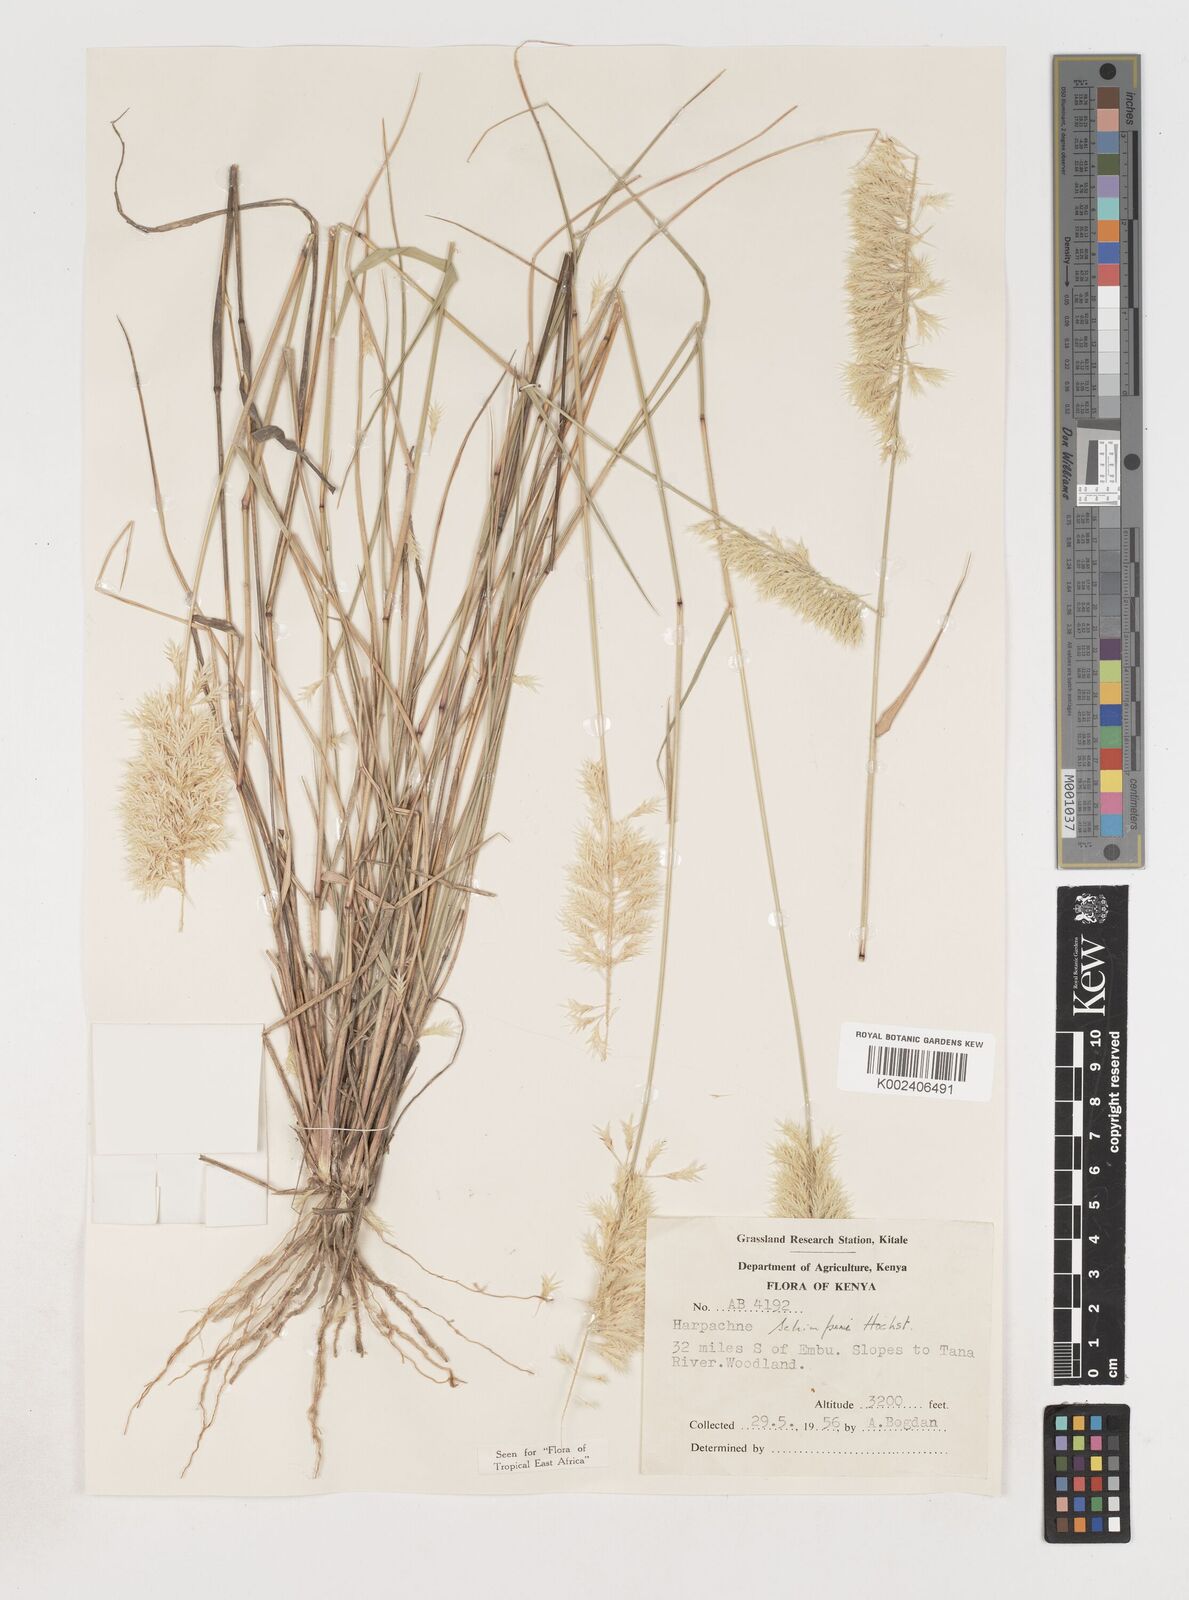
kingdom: Plantae
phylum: Tracheophyta
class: Liliopsida
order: Poales
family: Poaceae
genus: Harpachne
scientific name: Harpachne schimperi
